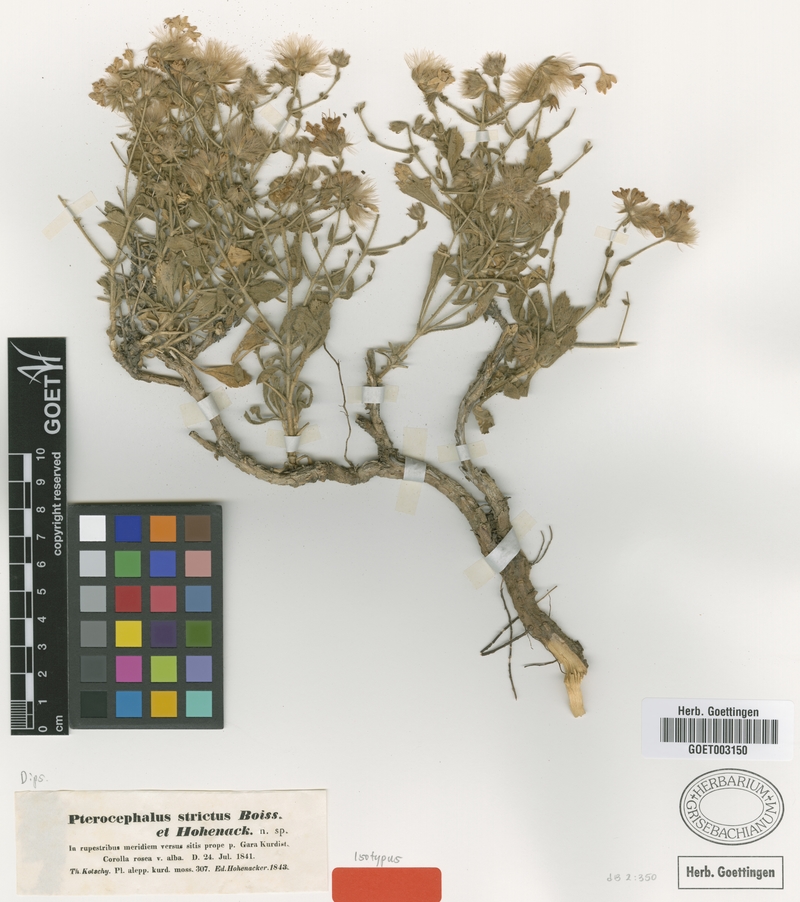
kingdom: Plantae
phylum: Tracheophyta
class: Magnoliopsida
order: Dipsacales
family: Caprifoliaceae
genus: Pterocephalus
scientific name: Pterocephalus strictus
